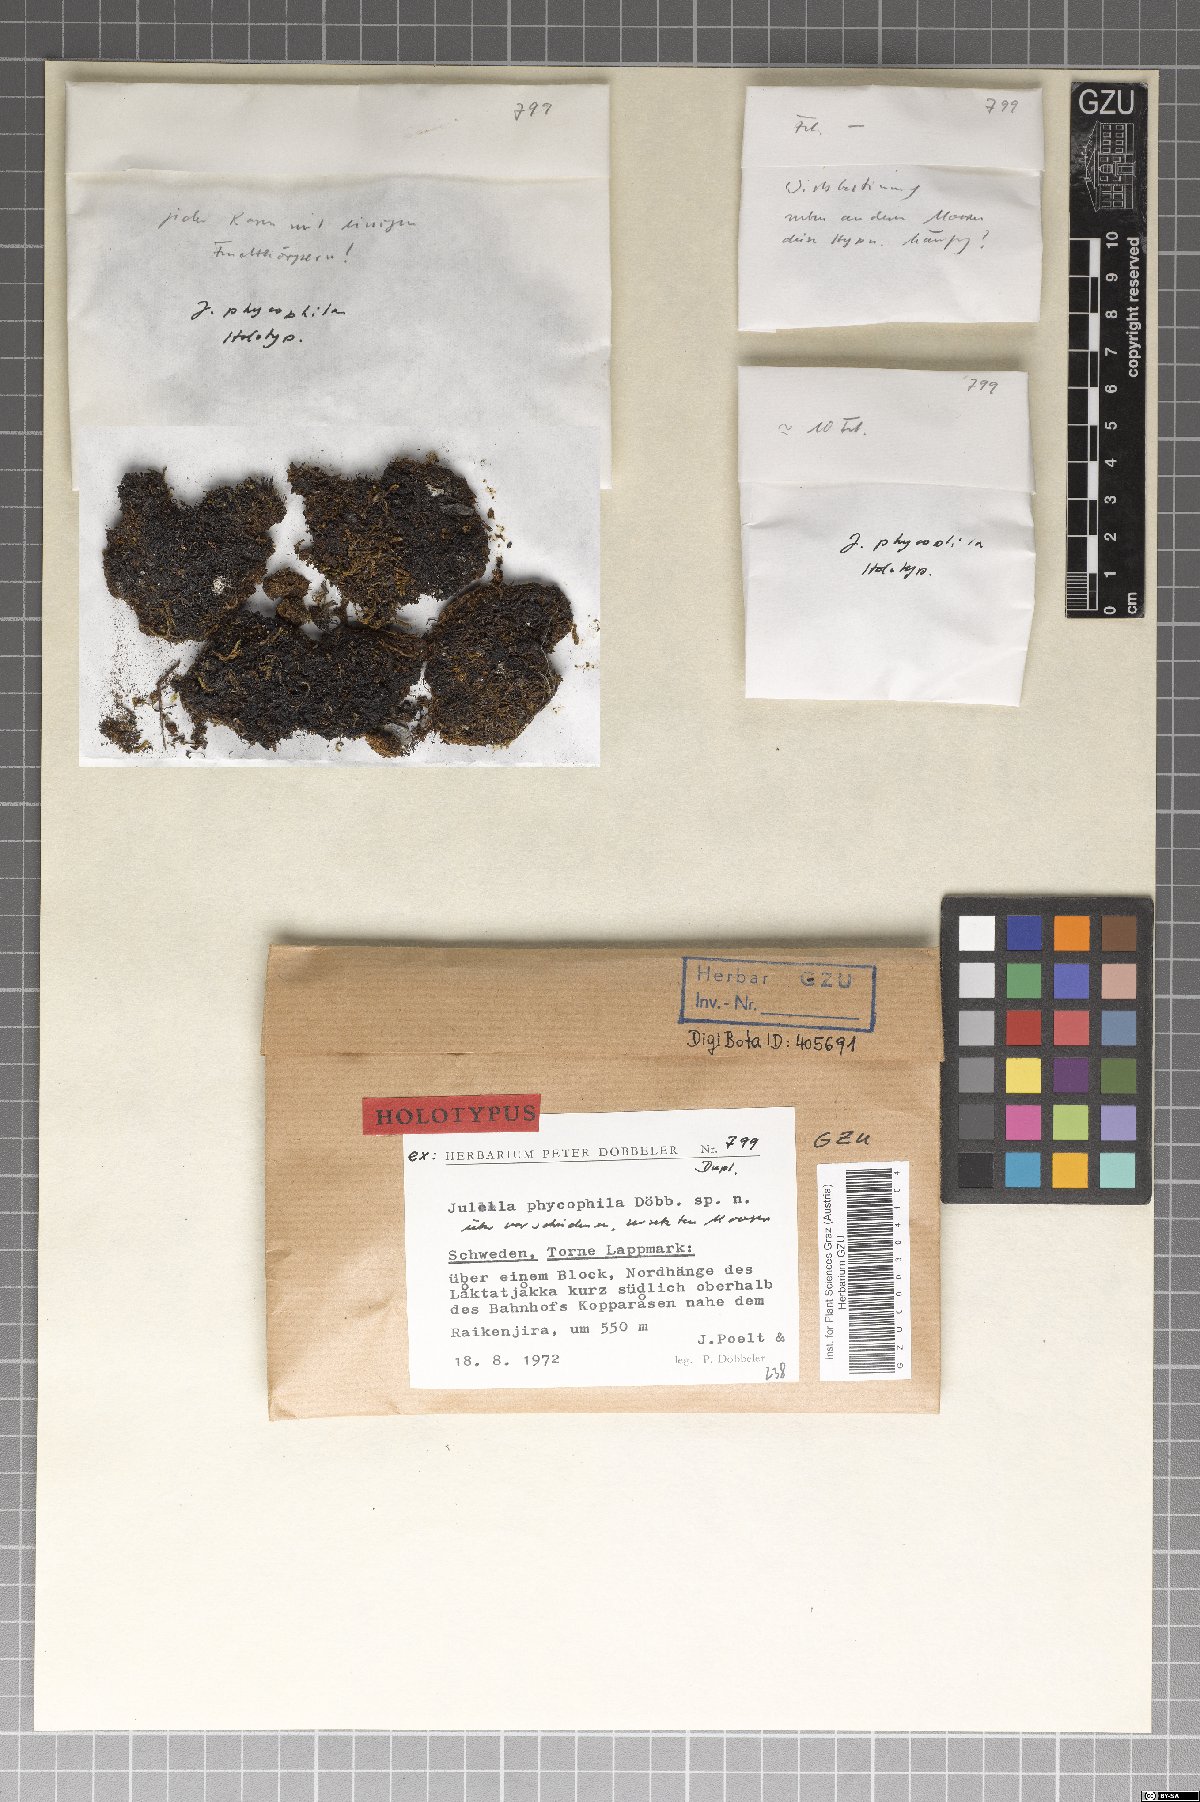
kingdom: Fungi
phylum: Ascomycota
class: Lecanoromycetes
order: Ostropales
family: Thelenellaceae
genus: Julella
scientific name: Julella phycophila
